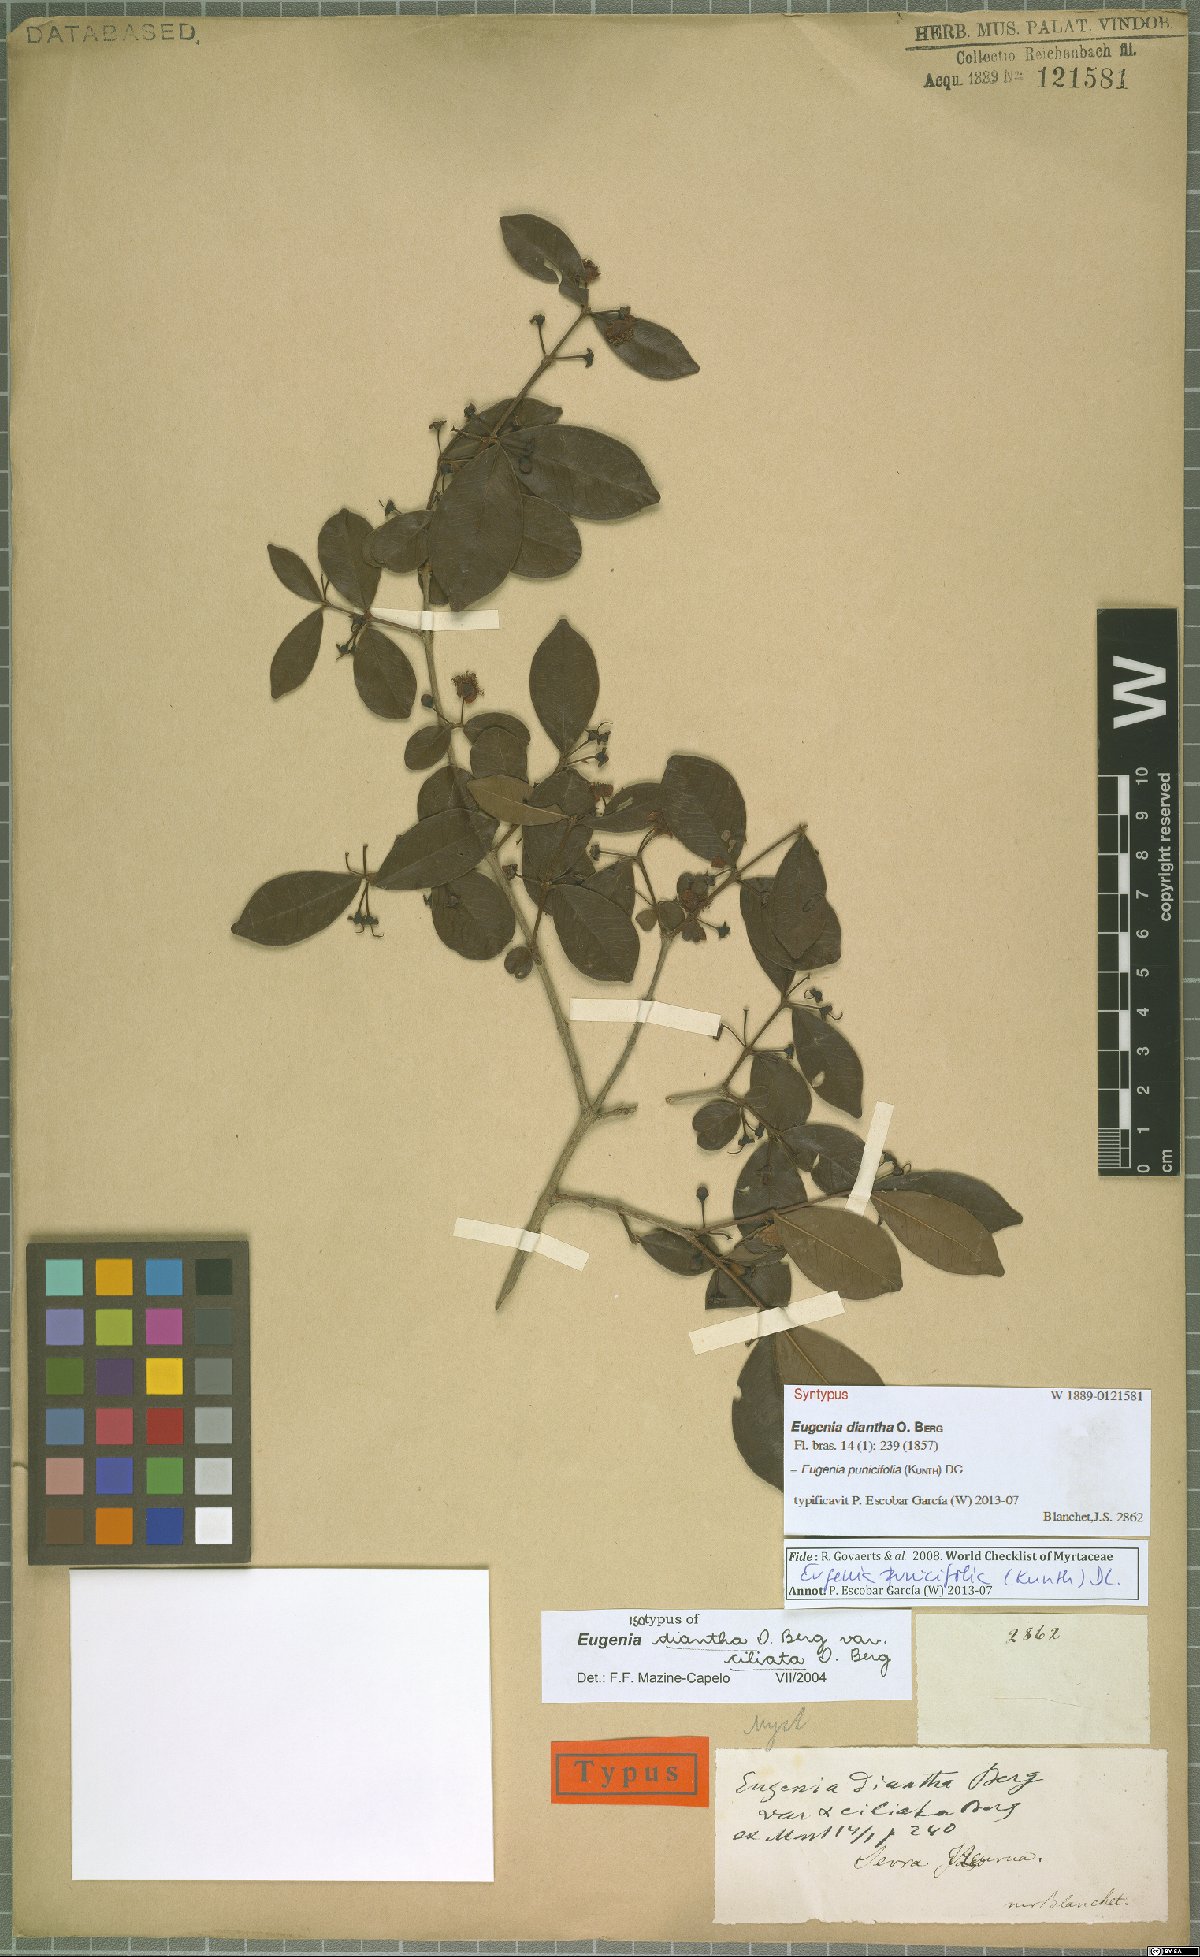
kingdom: Plantae
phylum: Tracheophyta
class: Magnoliopsida
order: Myrtales
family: Myrtaceae
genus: Eugenia
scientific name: Eugenia punicifolia
